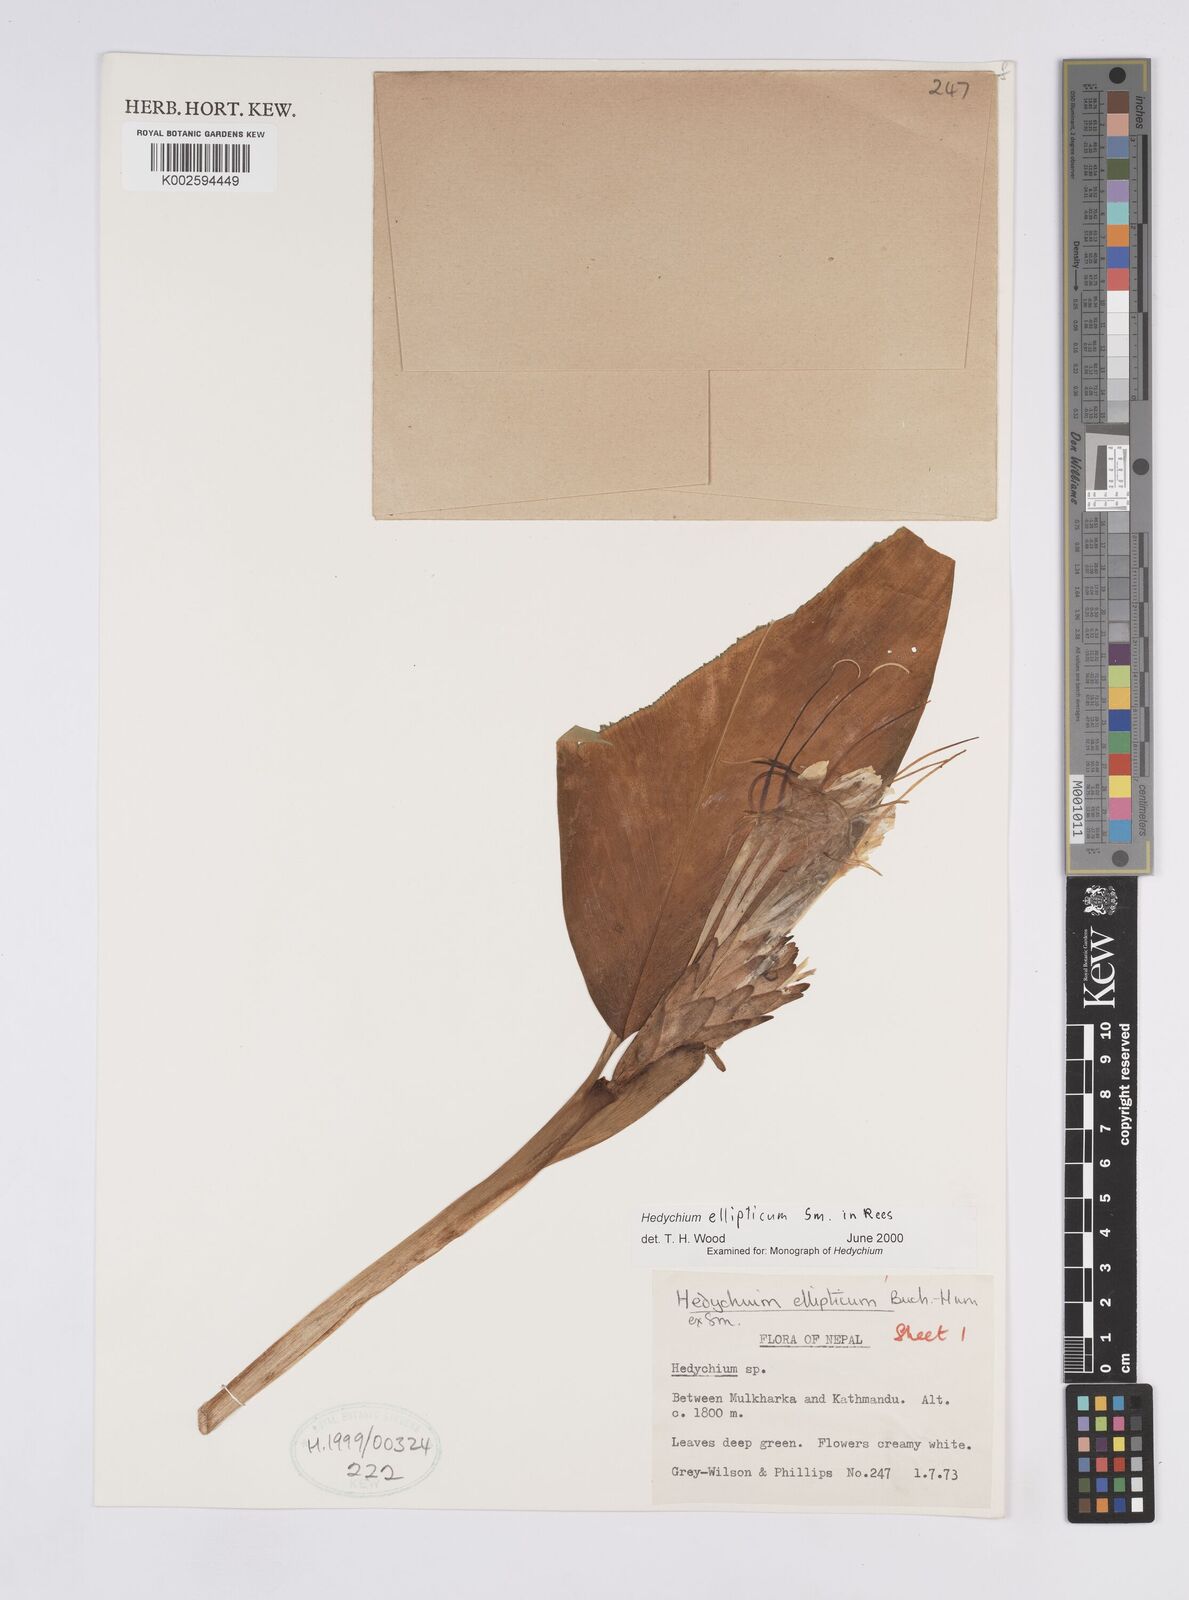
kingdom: Plantae
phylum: Tracheophyta
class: Liliopsida
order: Zingiberales
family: Zingiberaceae
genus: Hedychium
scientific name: Hedychium ellipticum
